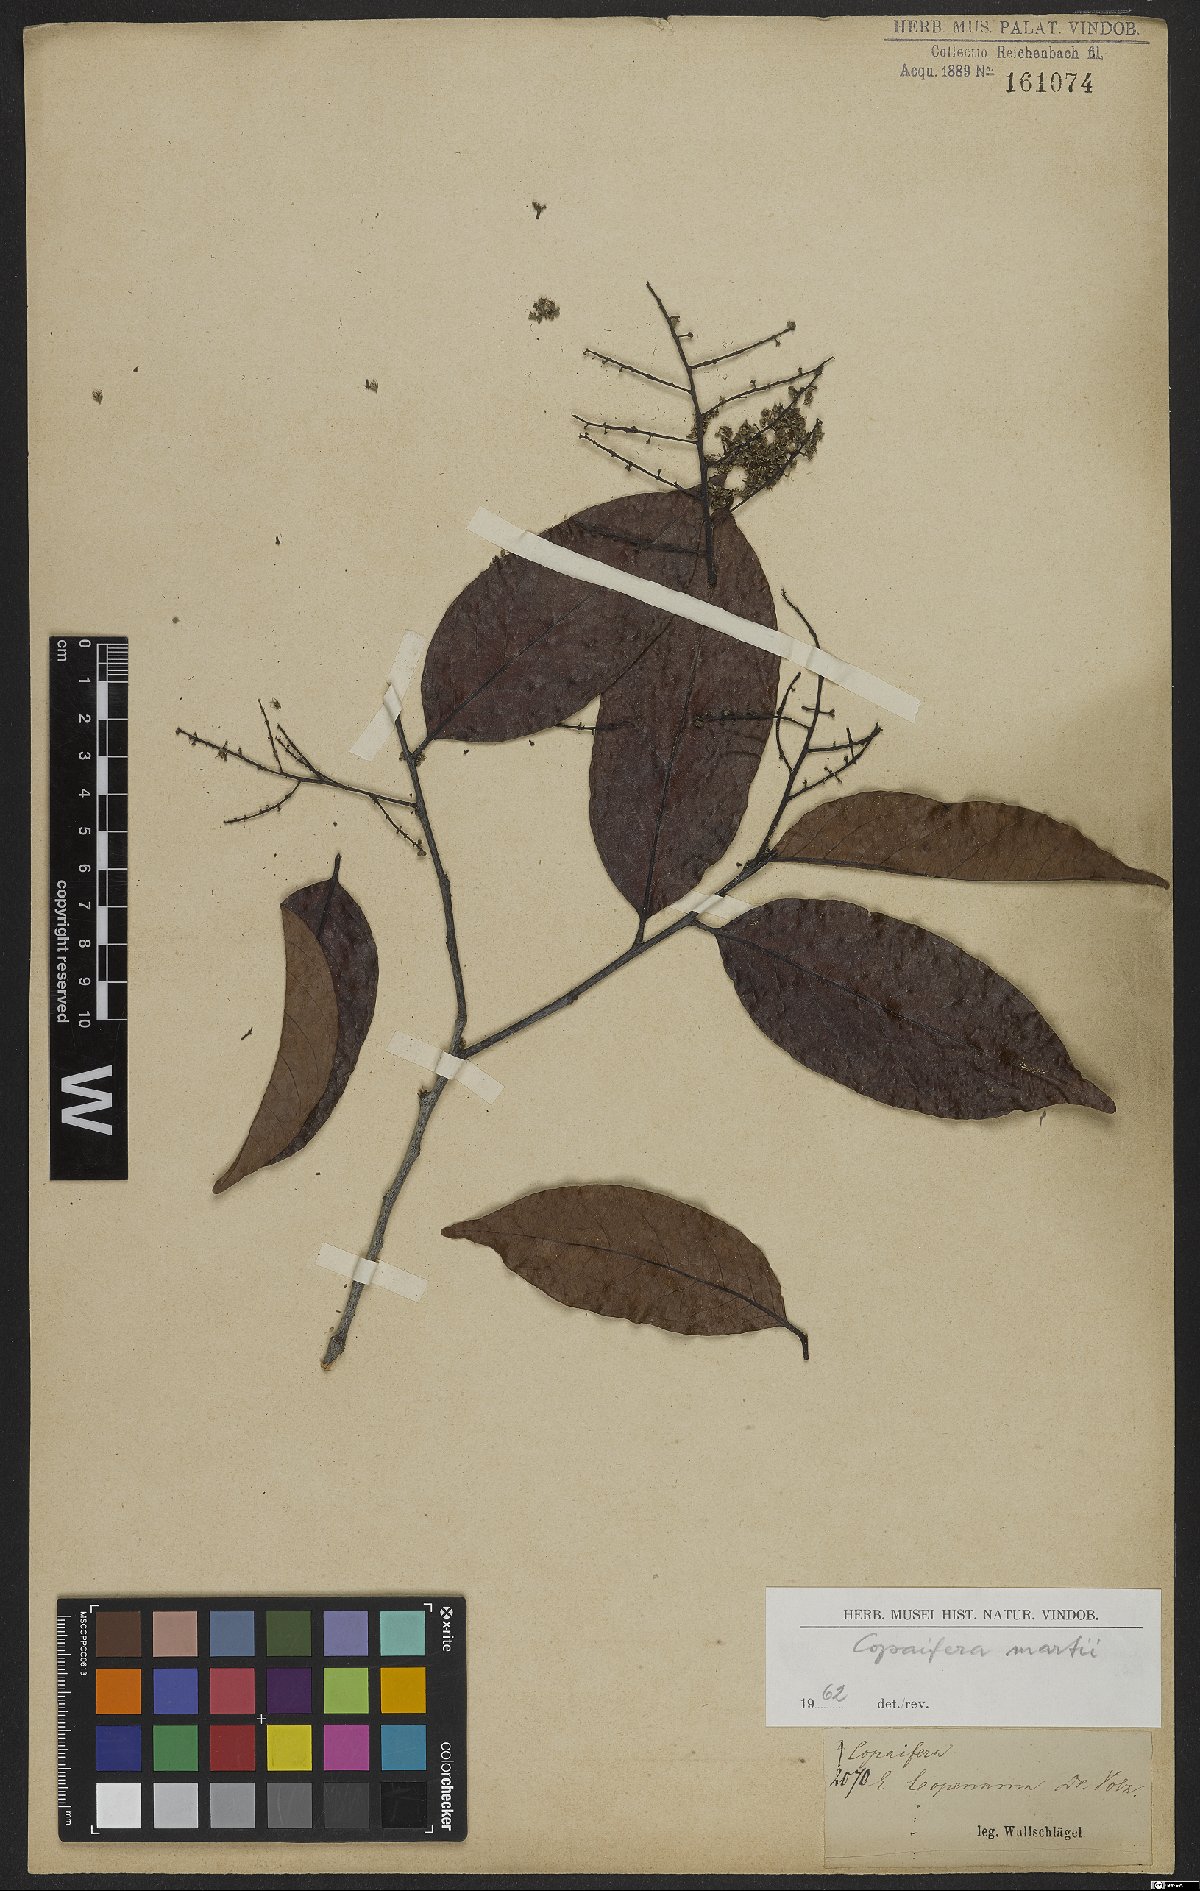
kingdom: Plantae
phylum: Tracheophyta
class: Magnoliopsida
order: Fabales
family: Fabaceae
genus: Copaifera
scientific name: Copaifera martii
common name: Copaiba
